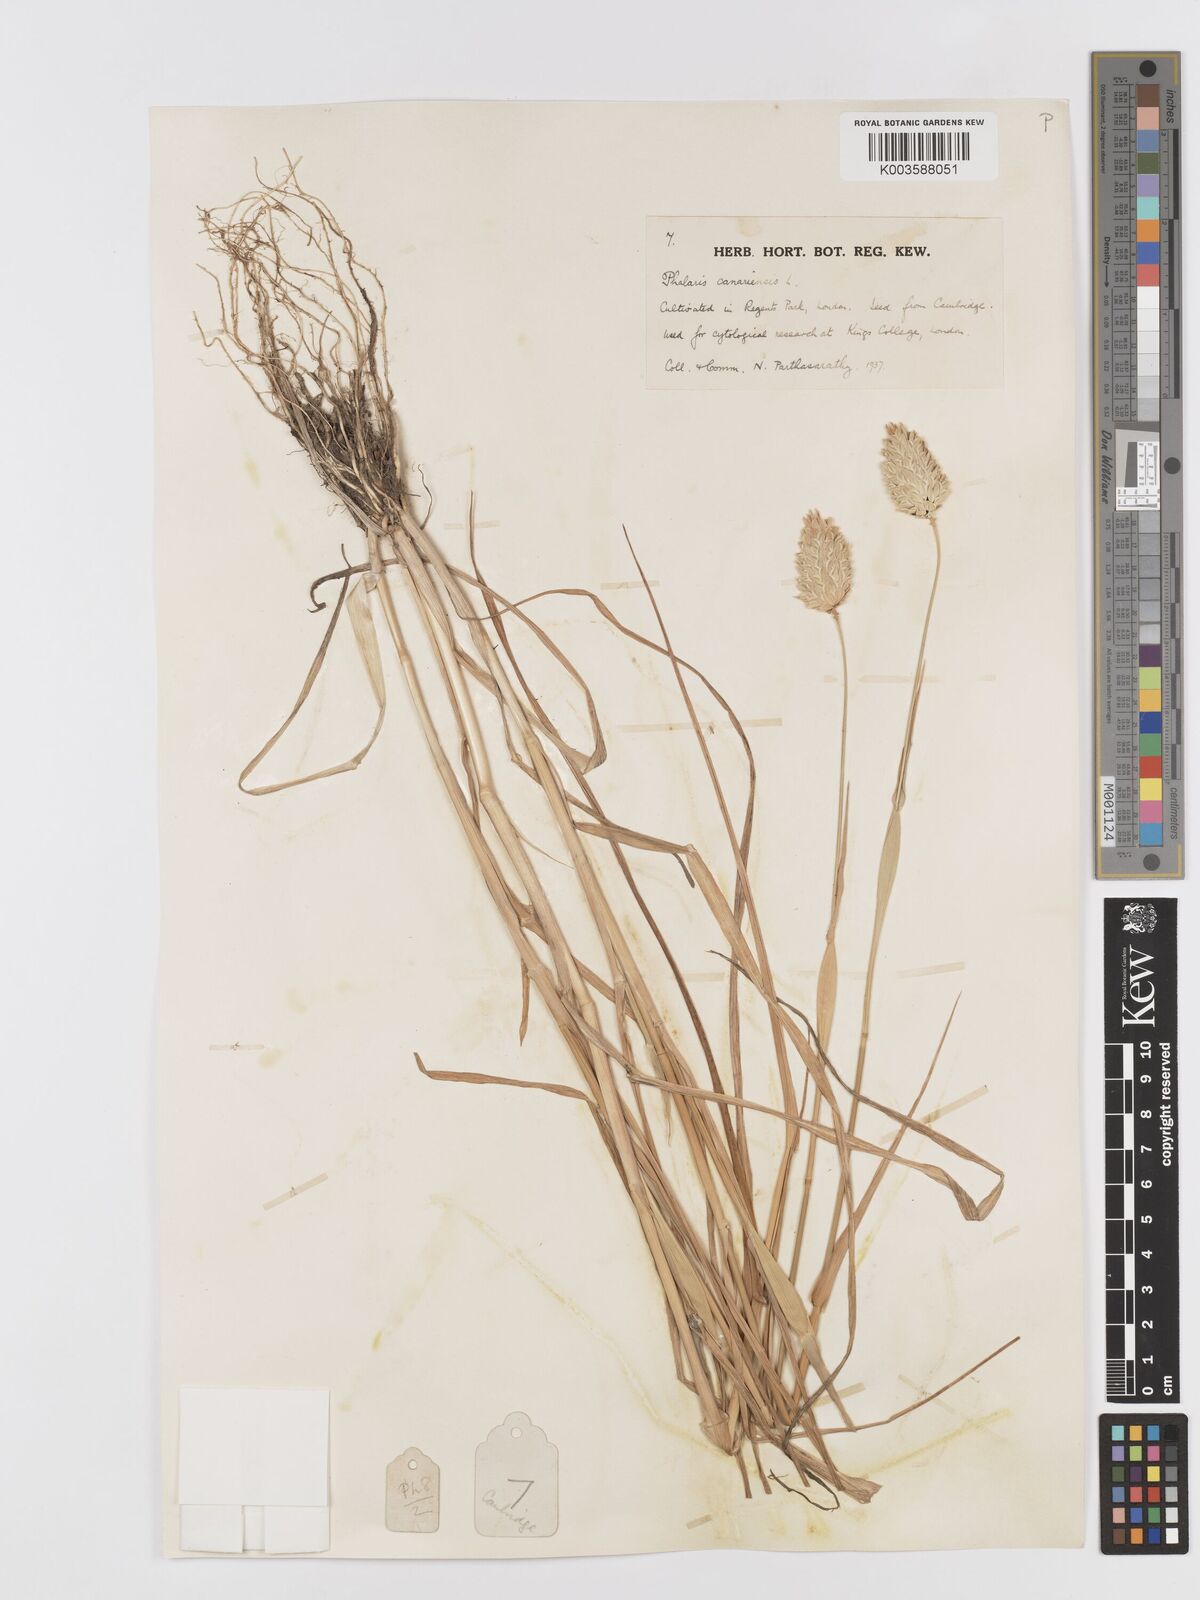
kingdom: Plantae
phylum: Tracheophyta
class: Liliopsida
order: Poales
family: Poaceae
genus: Phalaris
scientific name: Phalaris canariensis
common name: Annual canarygrass
